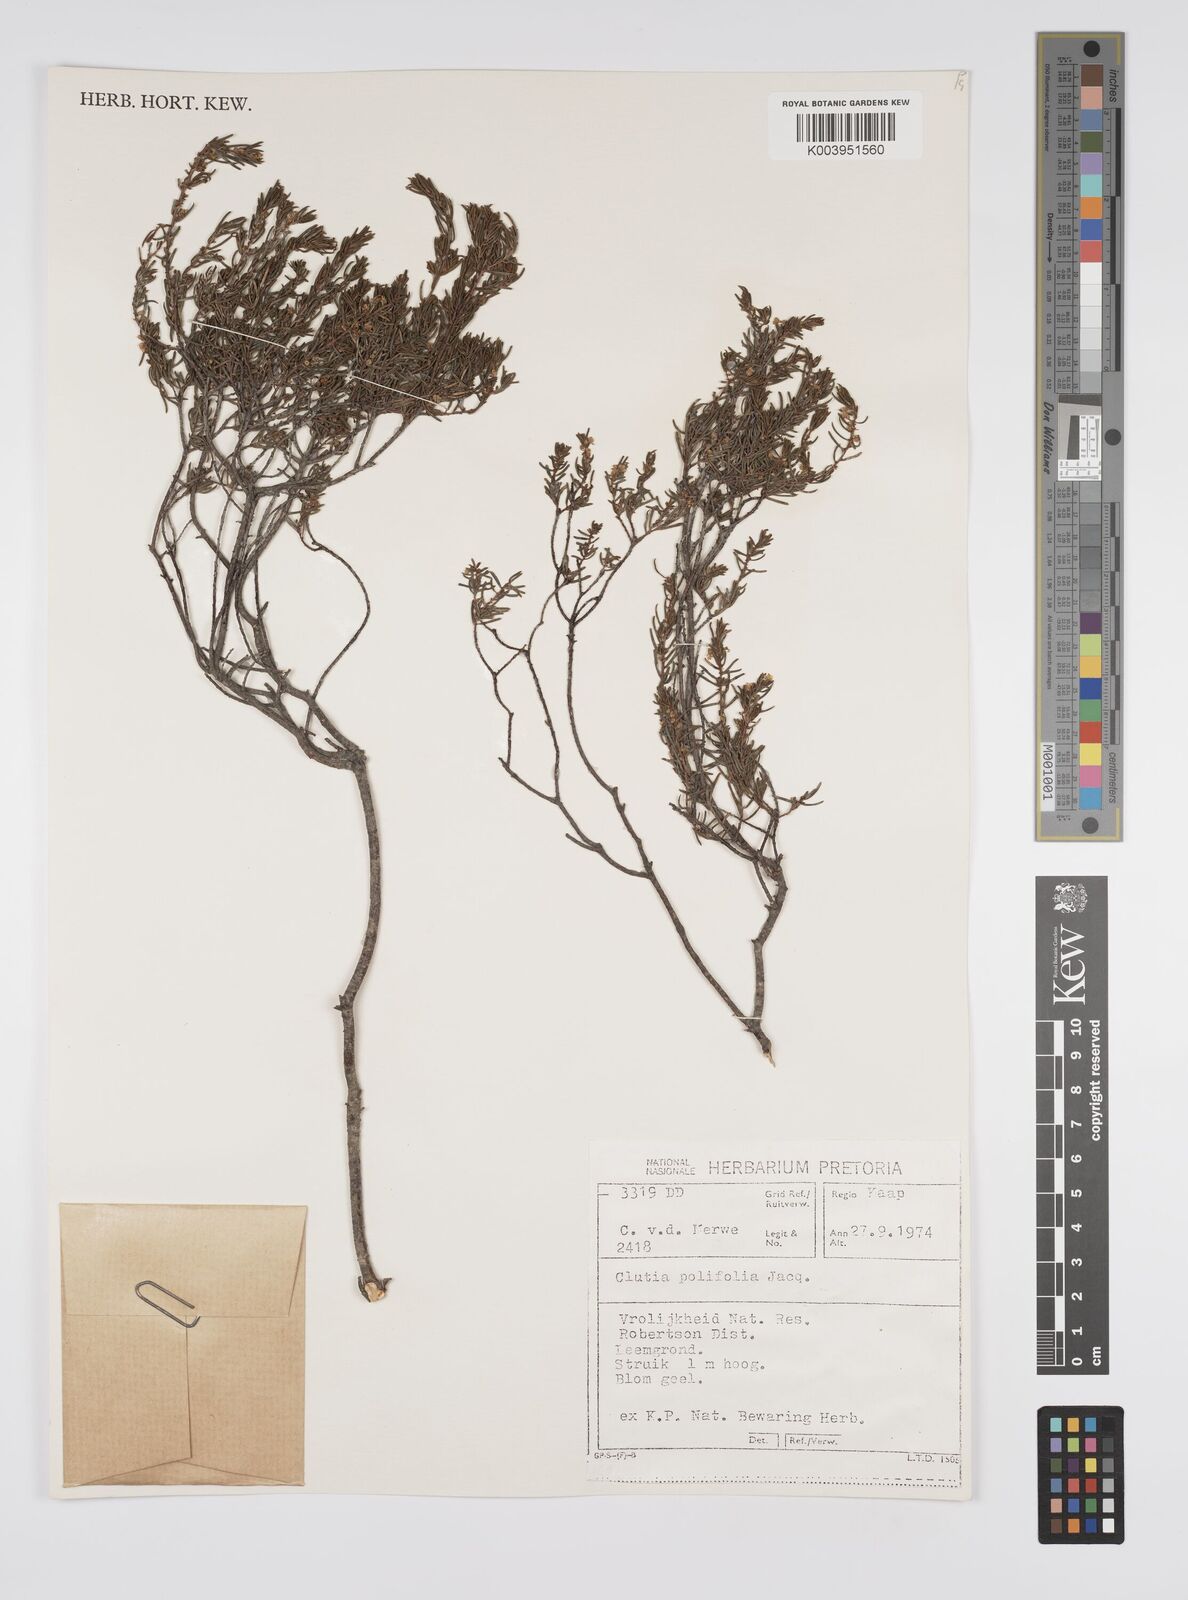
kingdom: Plantae
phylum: Tracheophyta
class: Magnoliopsida
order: Malpighiales
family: Peraceae
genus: Clutia
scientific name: Clutia
